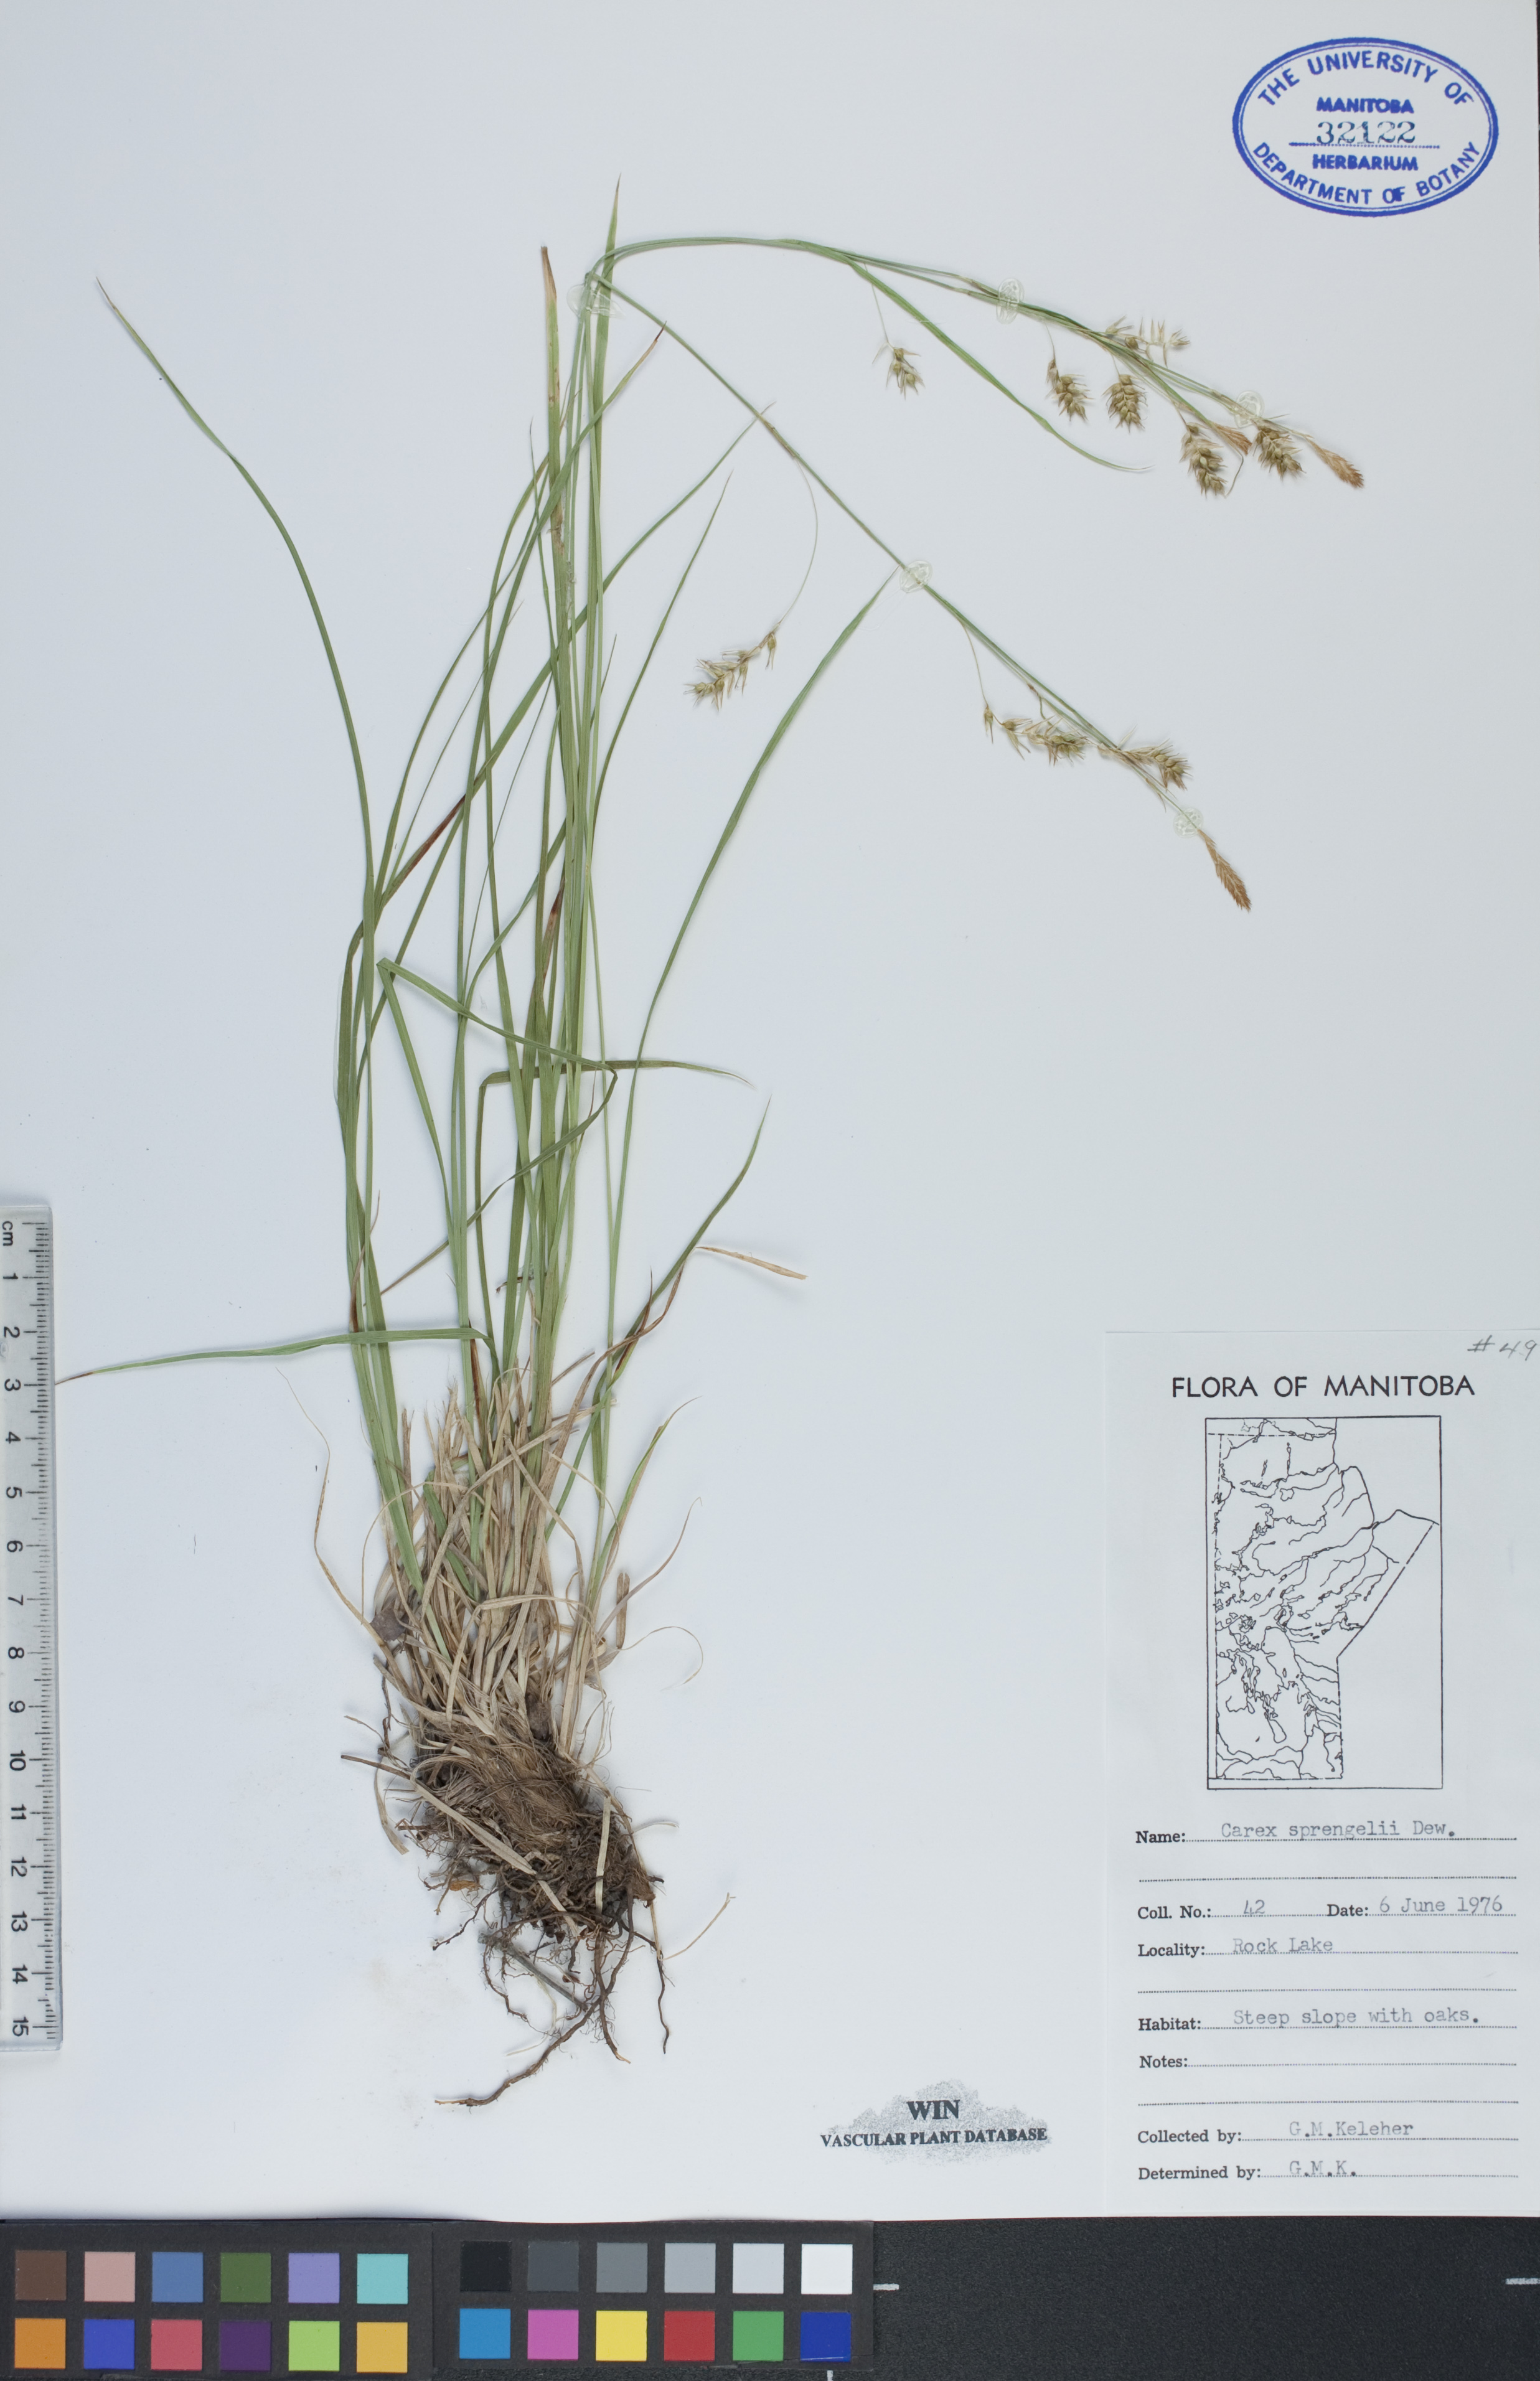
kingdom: Plantae
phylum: Tracheophyta
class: Liliopsida
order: Poales
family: Cyperaceae
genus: Carex
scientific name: Carex sprengelii
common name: Long-beaked sedge
